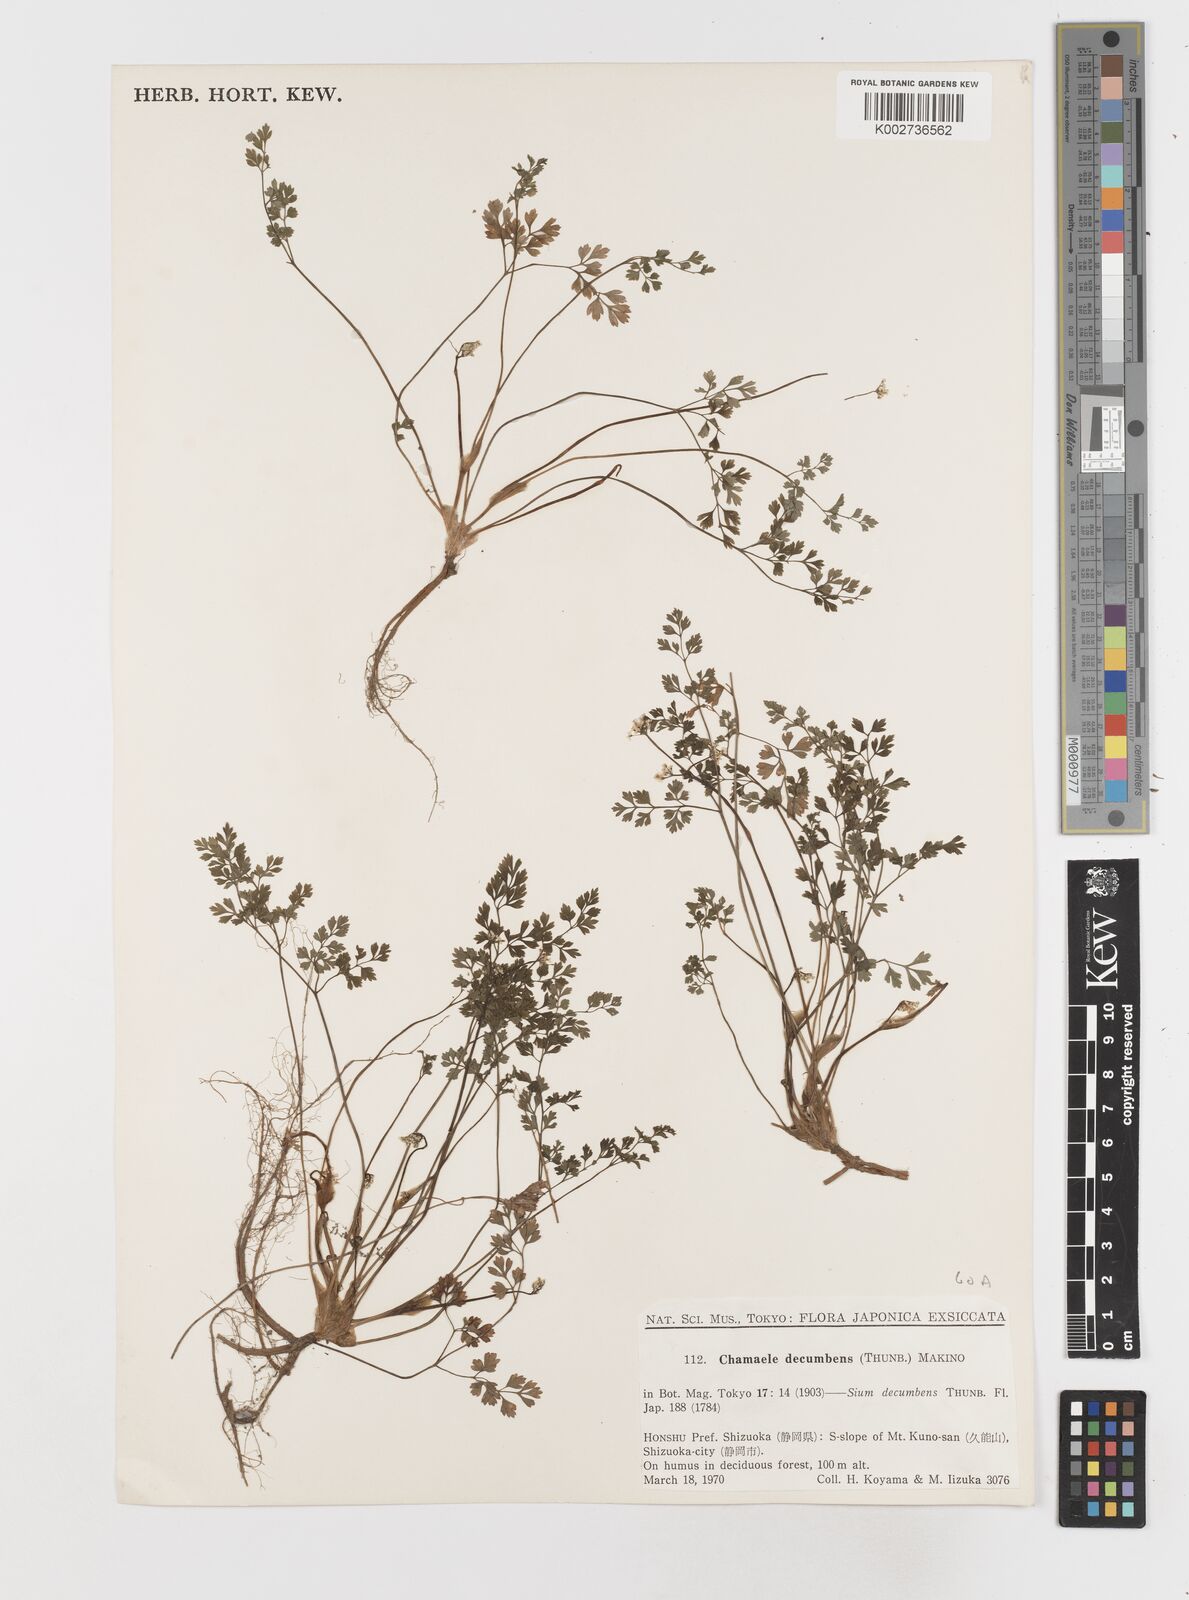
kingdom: Plantae
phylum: Tracheophyta
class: Magnoliopsida
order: Apiales
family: Apiaceae
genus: Aegopodium
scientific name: Aegopodium decumbens
